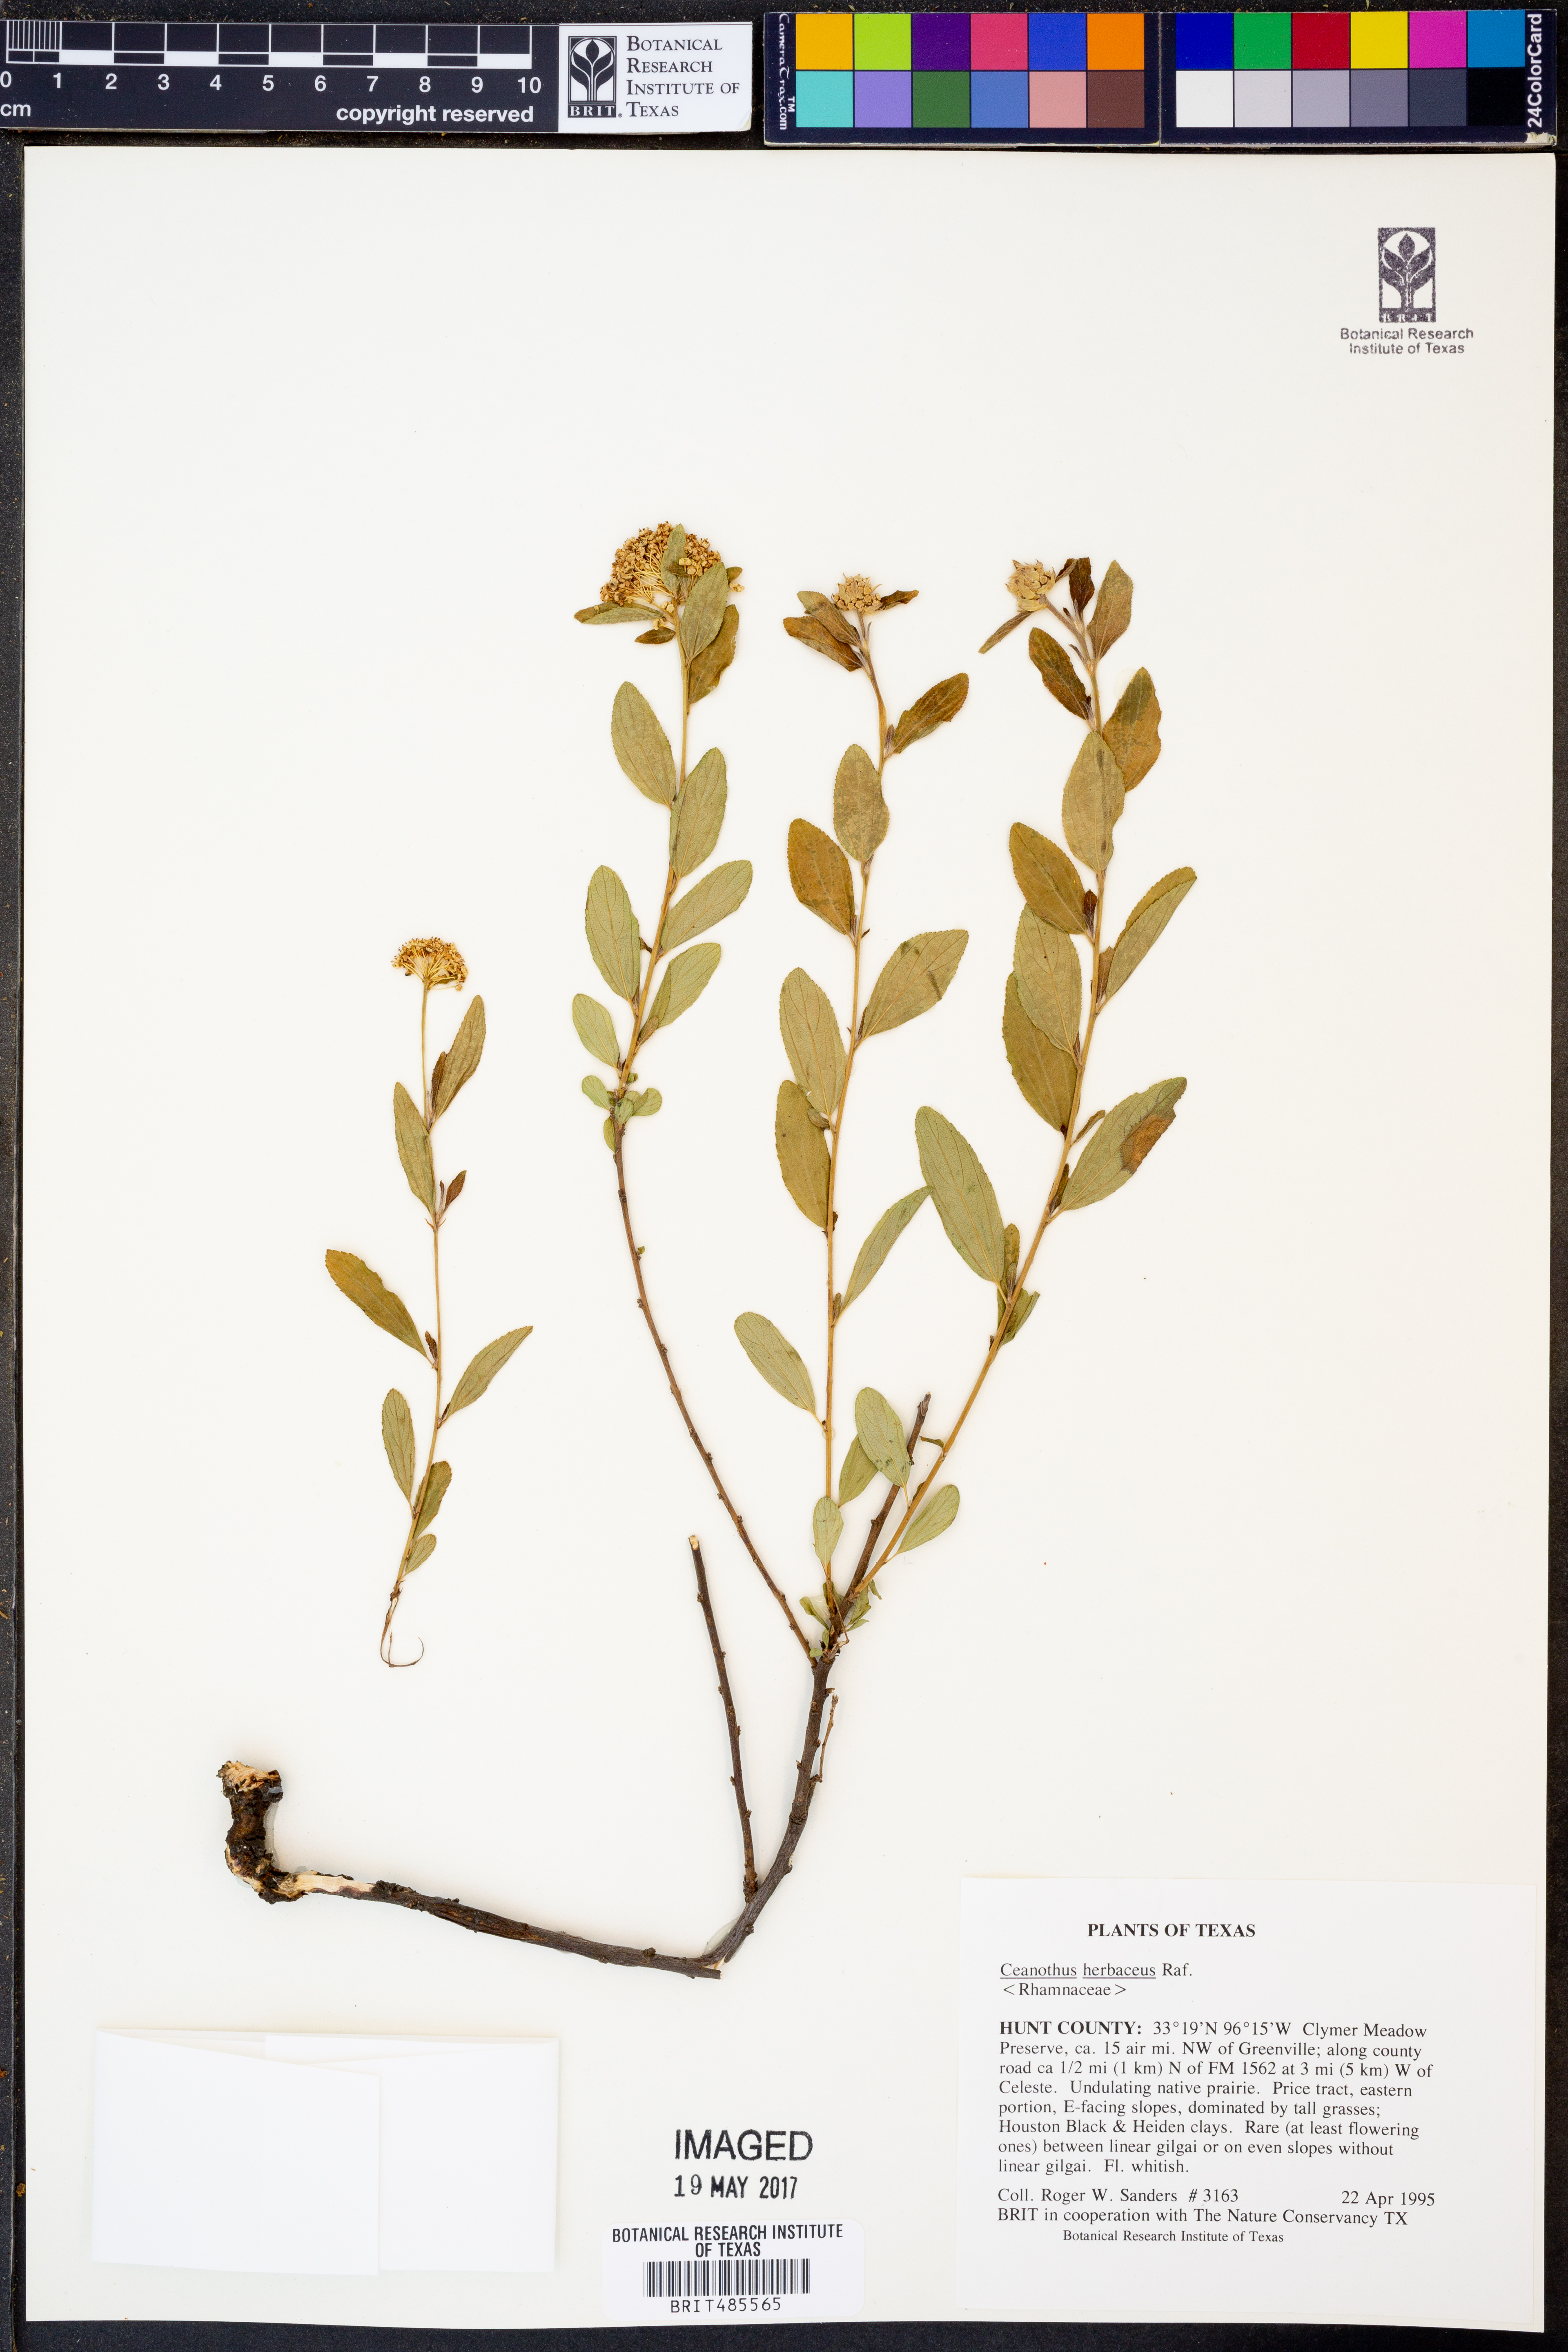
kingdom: Plantae
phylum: Tracheophyta
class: Magnoliopsida
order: Rosales
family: Rhamnaceae
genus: Ceanothus
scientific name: Ceanothus herbaceus
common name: Inland ceanothus
